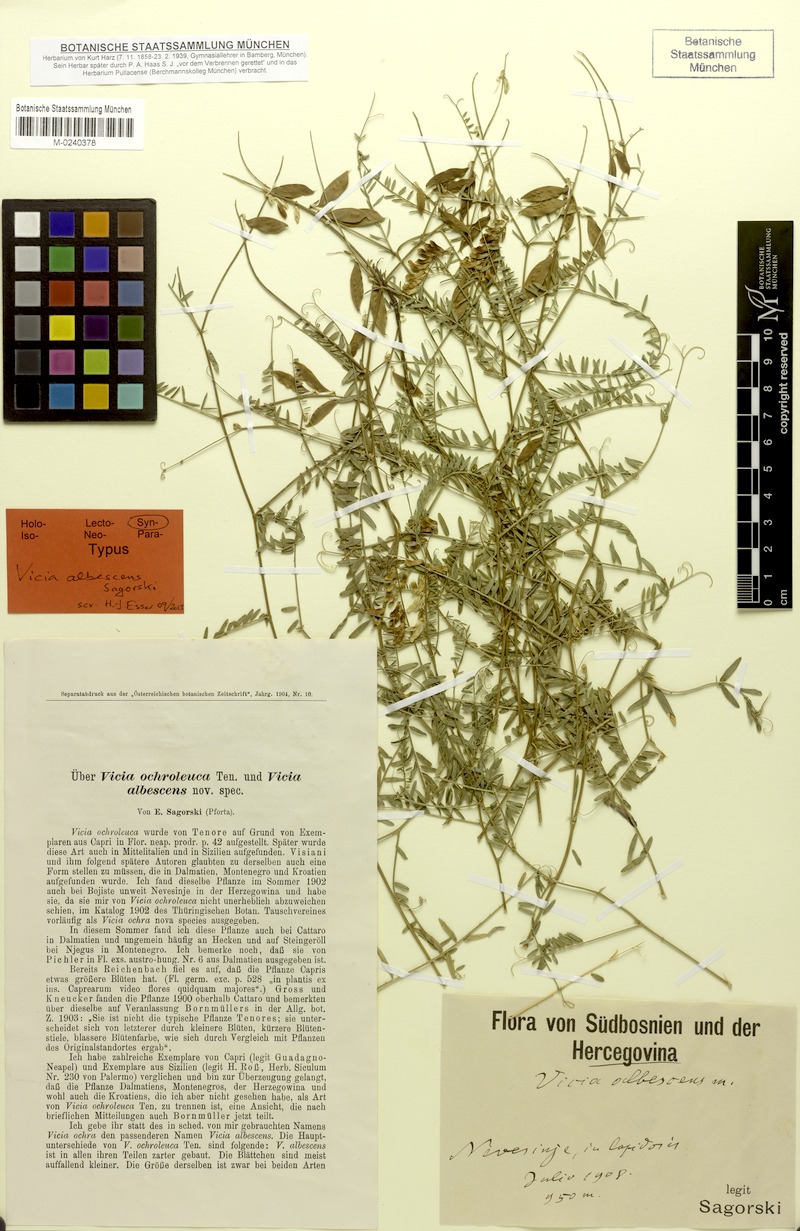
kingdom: Plantae
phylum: Tracheophyta
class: Magnoliopsida
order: Fabales
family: Fabaceae
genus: Vicia
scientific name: Vicia ochroleuca
